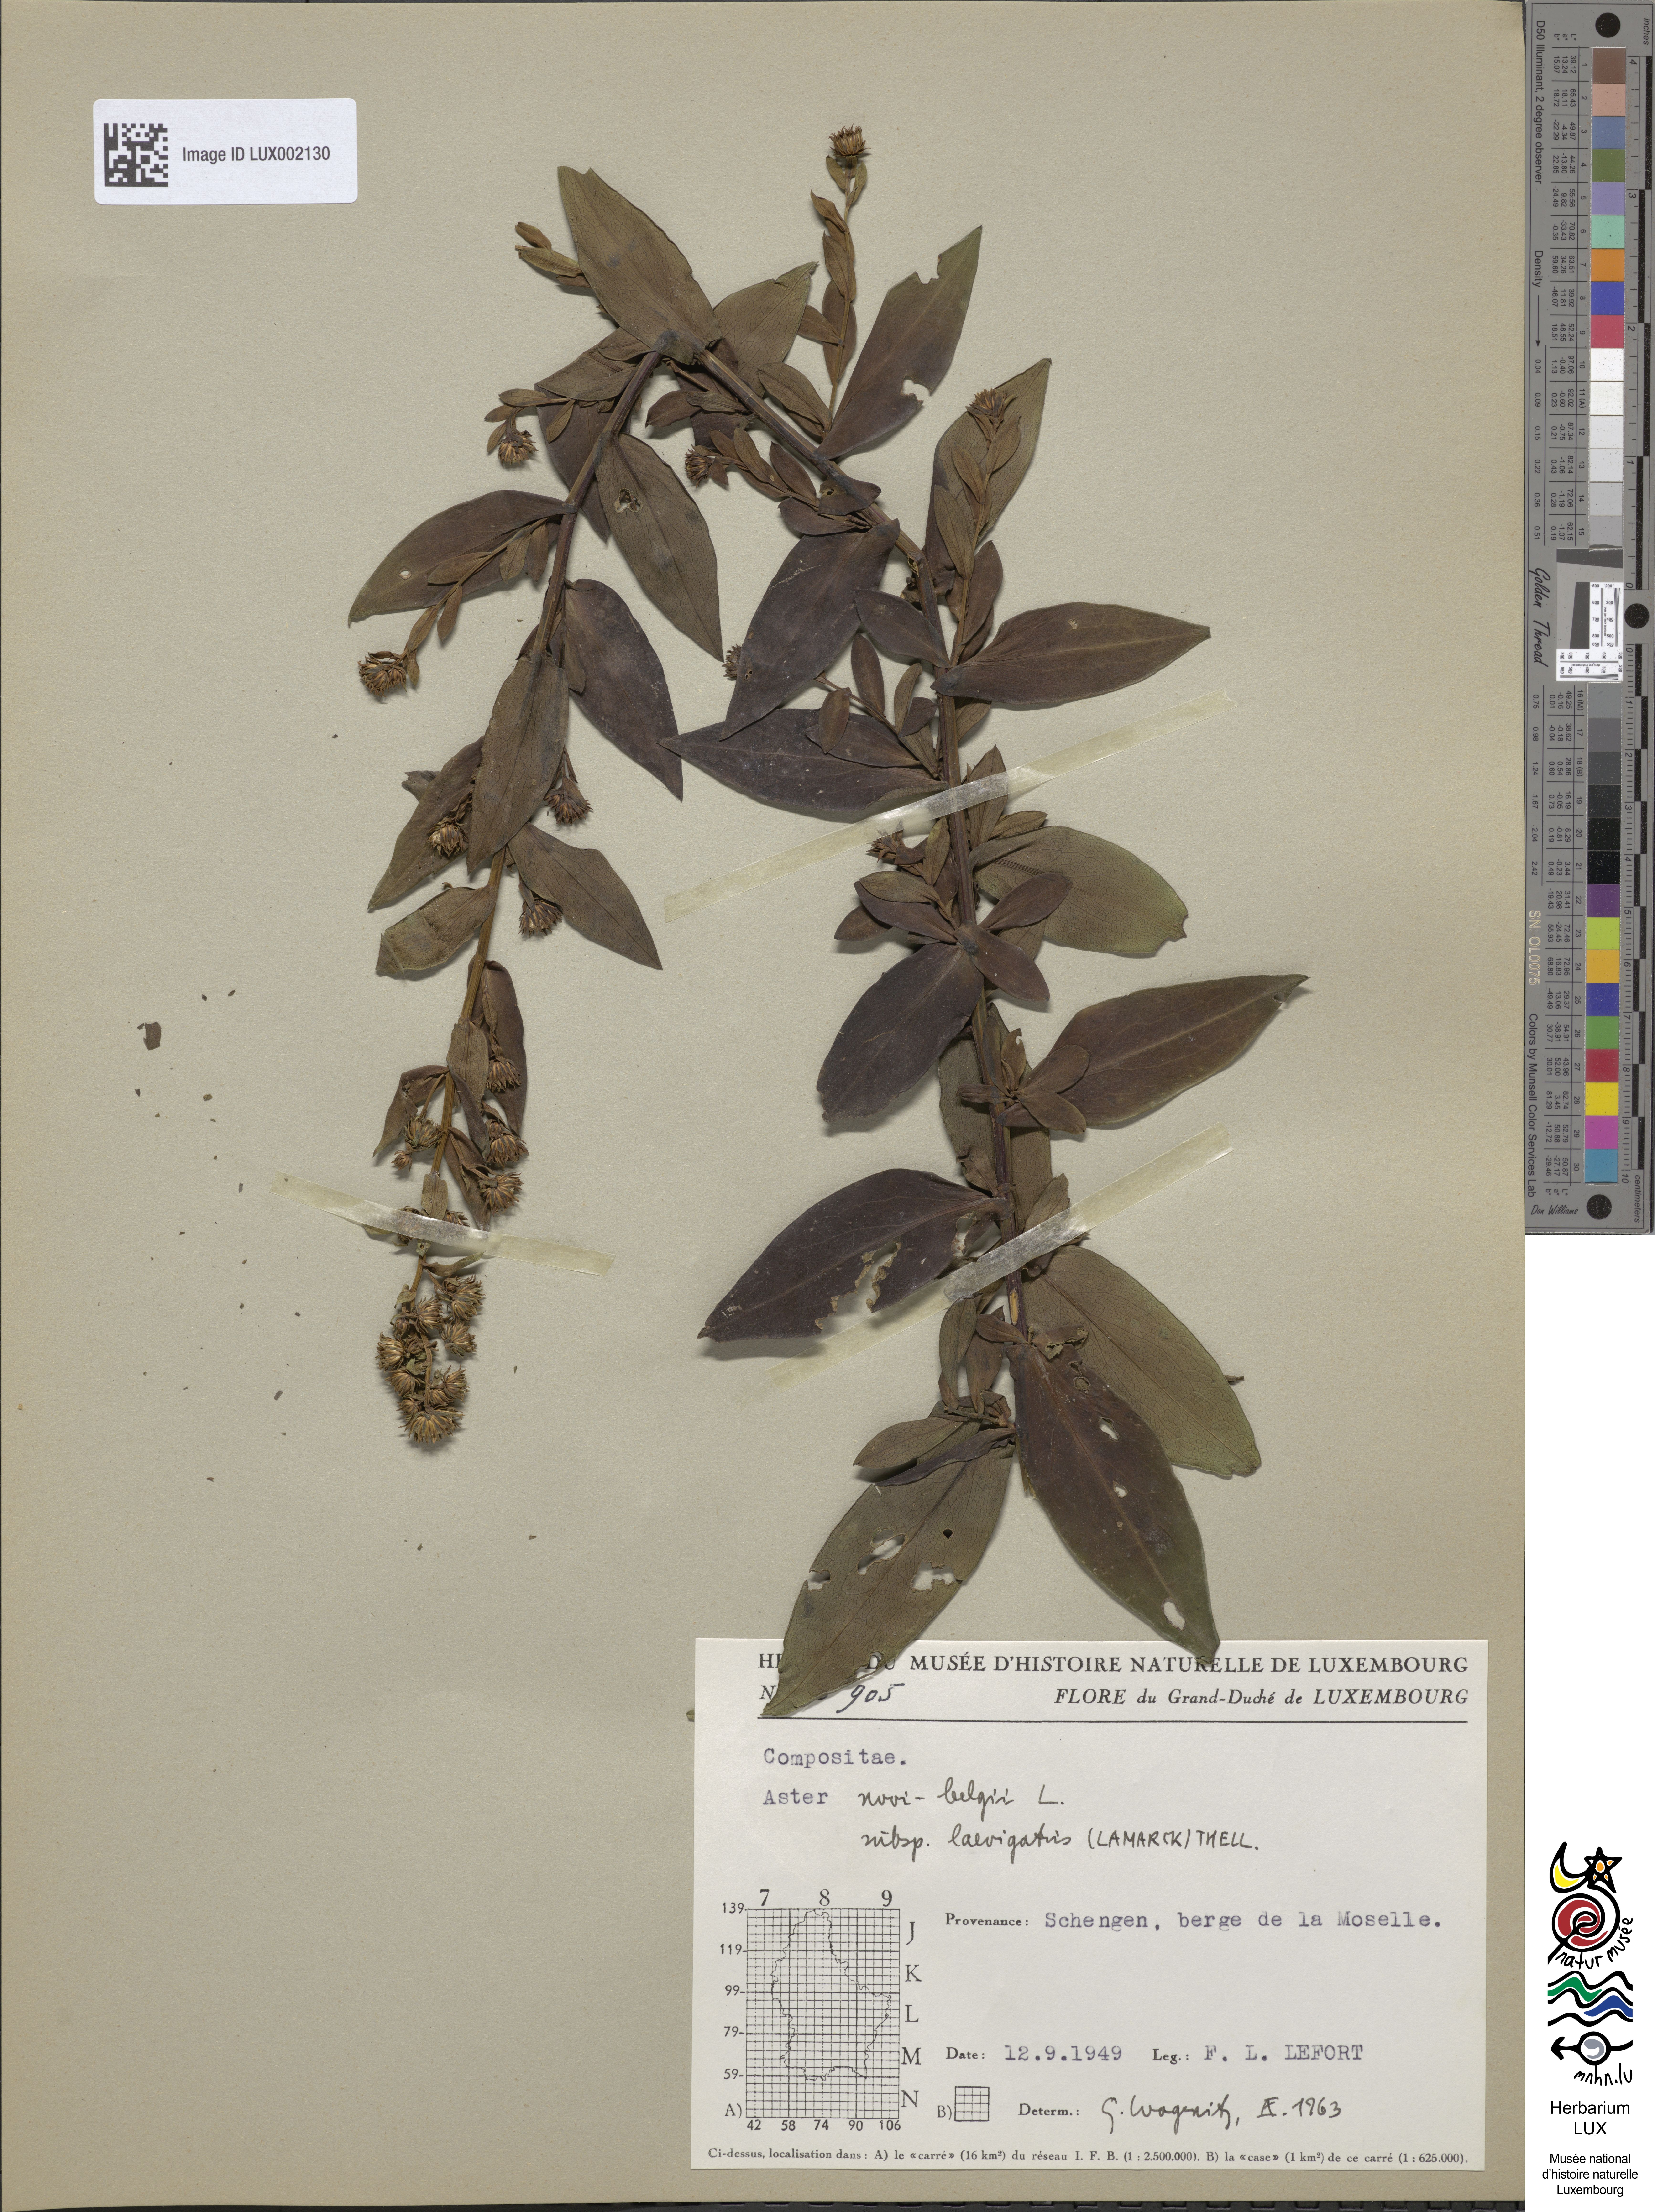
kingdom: Plantae
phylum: Tracheophyta
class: Magnoliopsida
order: Asterales
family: Asteraceae
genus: Symphyotrichum
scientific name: Symphyotrichum novi-belgii
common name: Michaelmas daisy
